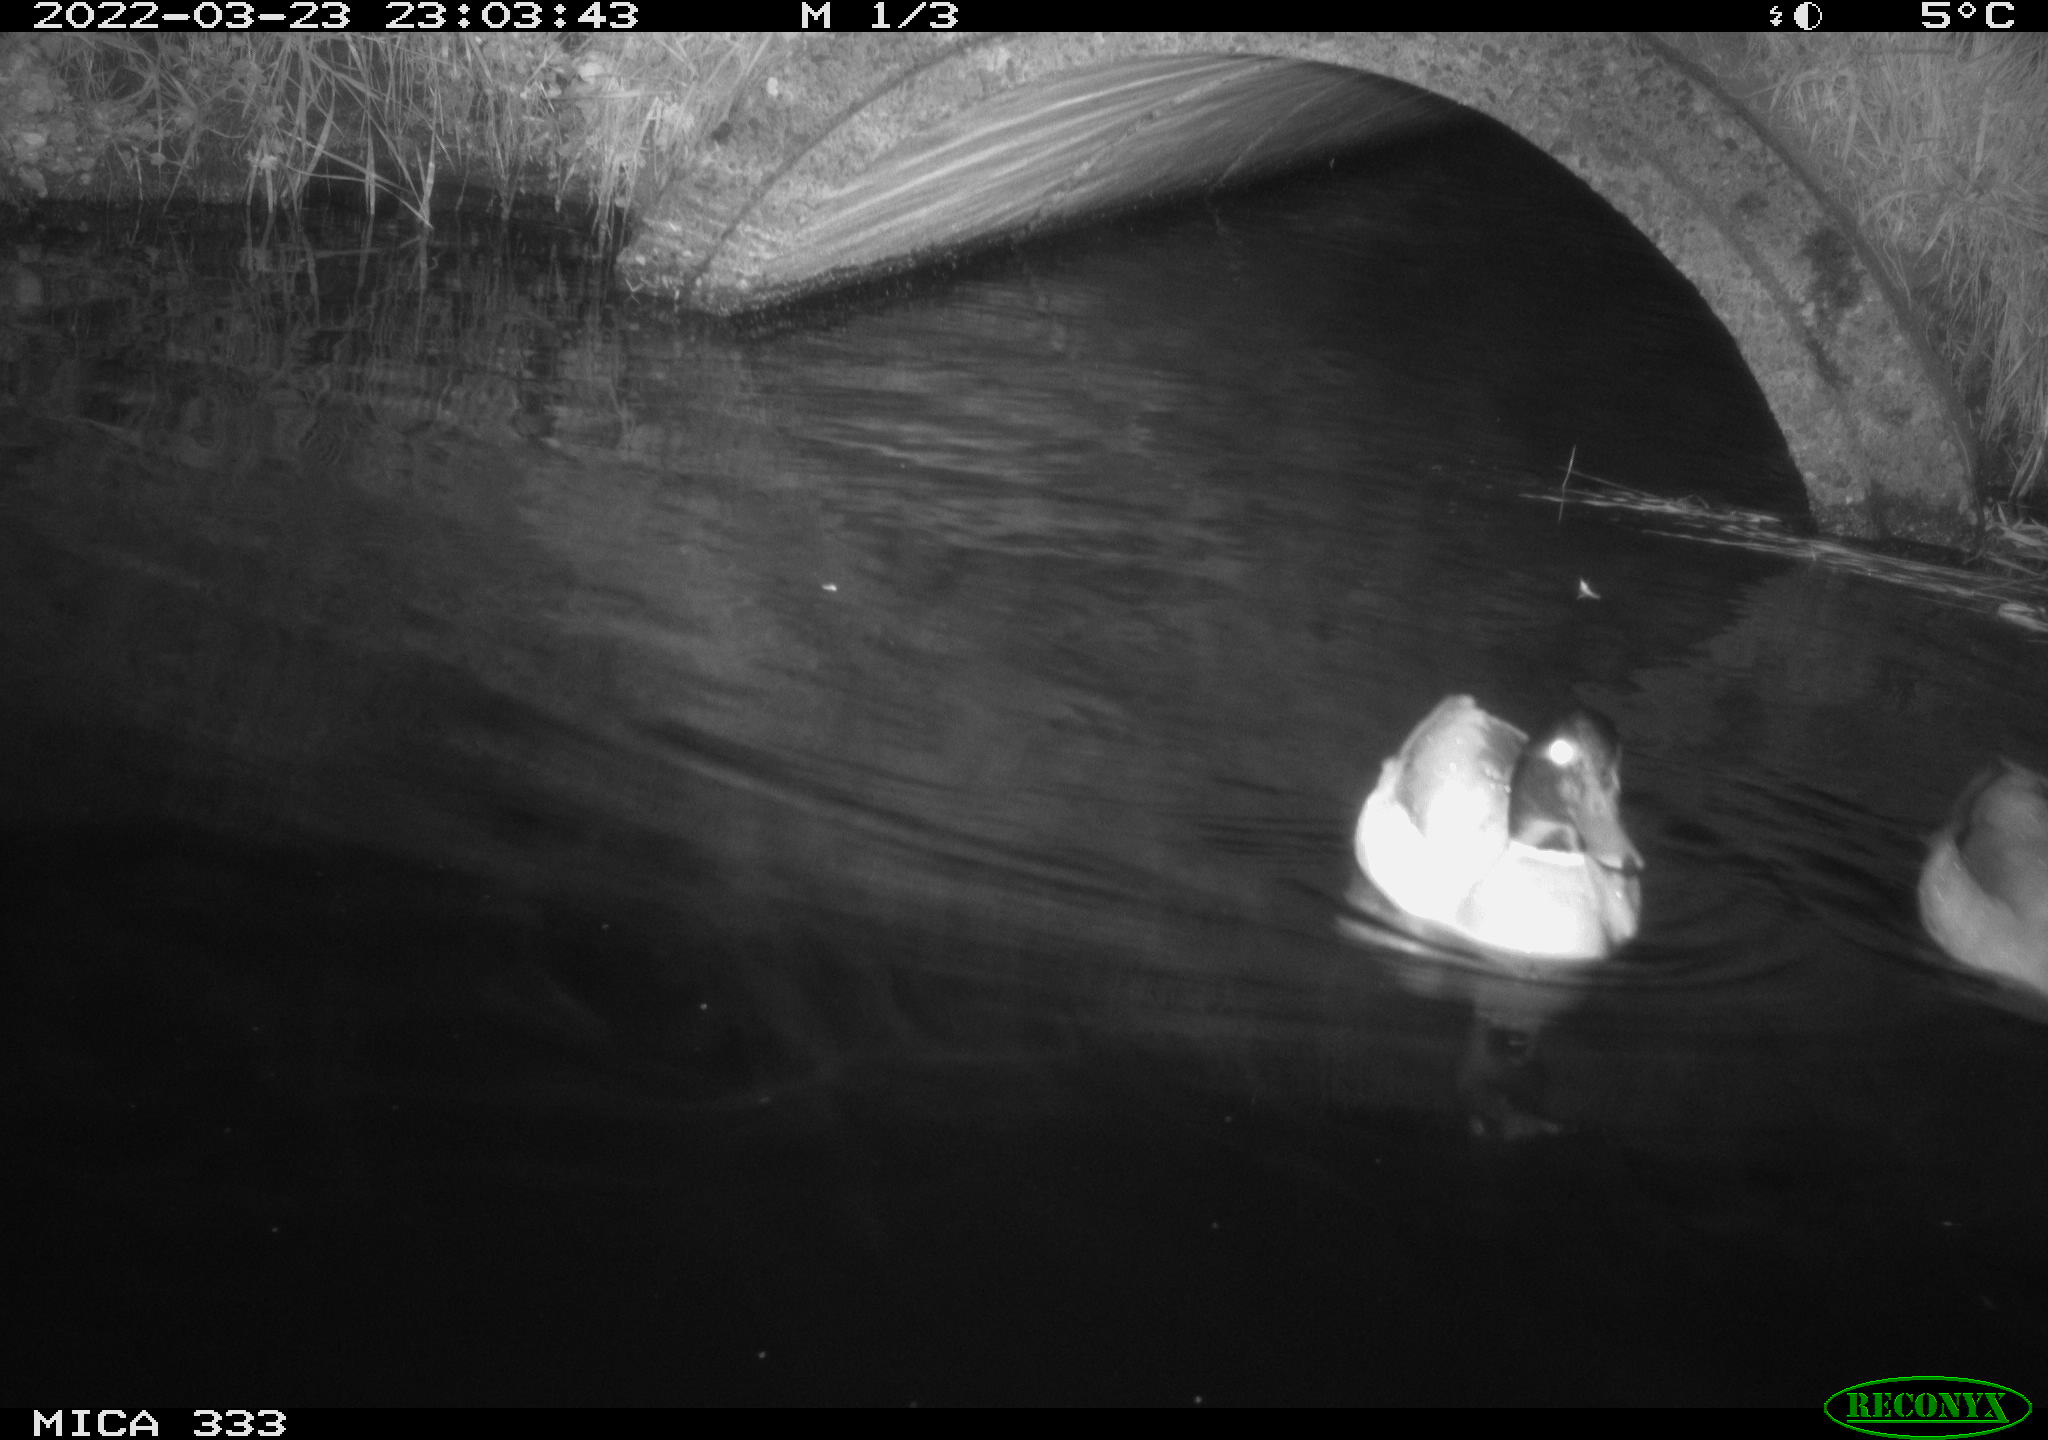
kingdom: Animalia
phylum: Chordata
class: Aves
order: Anseriformes
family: Anatidae
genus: Anas
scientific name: Anas platyrhynchos
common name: Mallard
